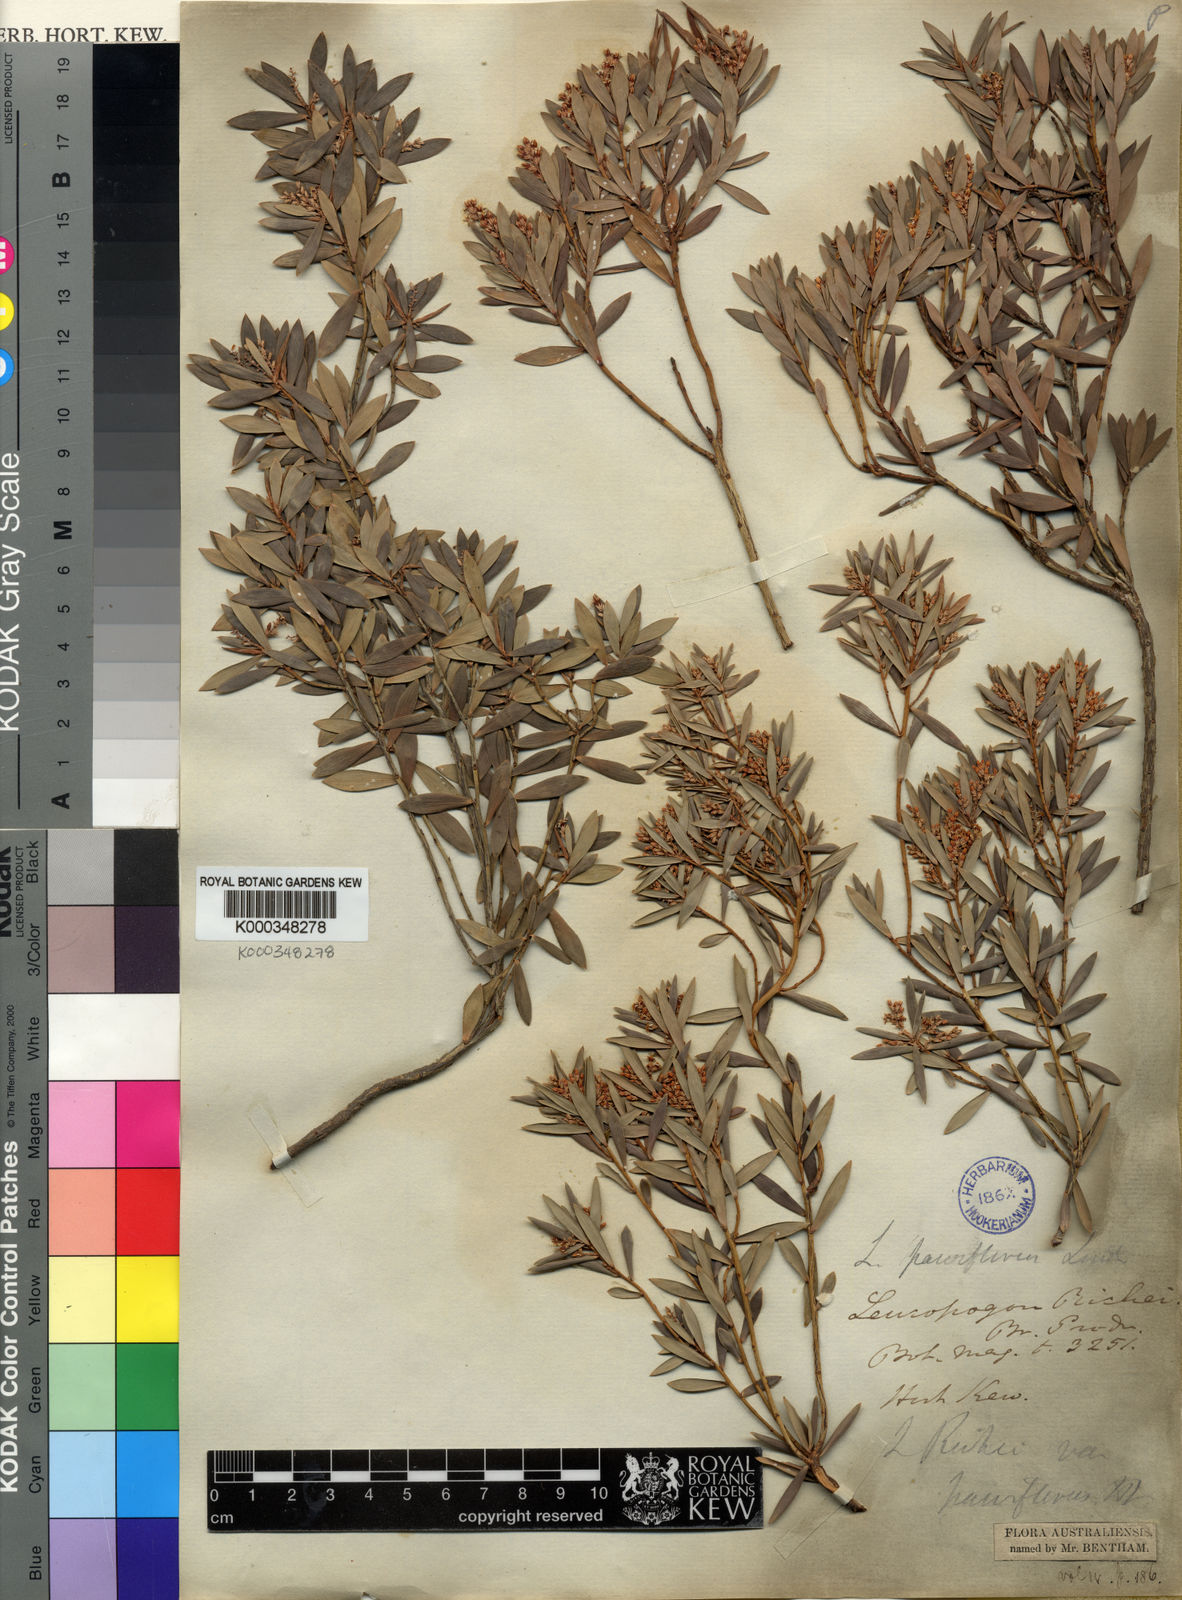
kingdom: Plantae
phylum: Tracheophyta
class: Magnoliopsida
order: Ericales
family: Ericaceae
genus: Leptecophylla
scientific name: Leptecophylla parvifolia
